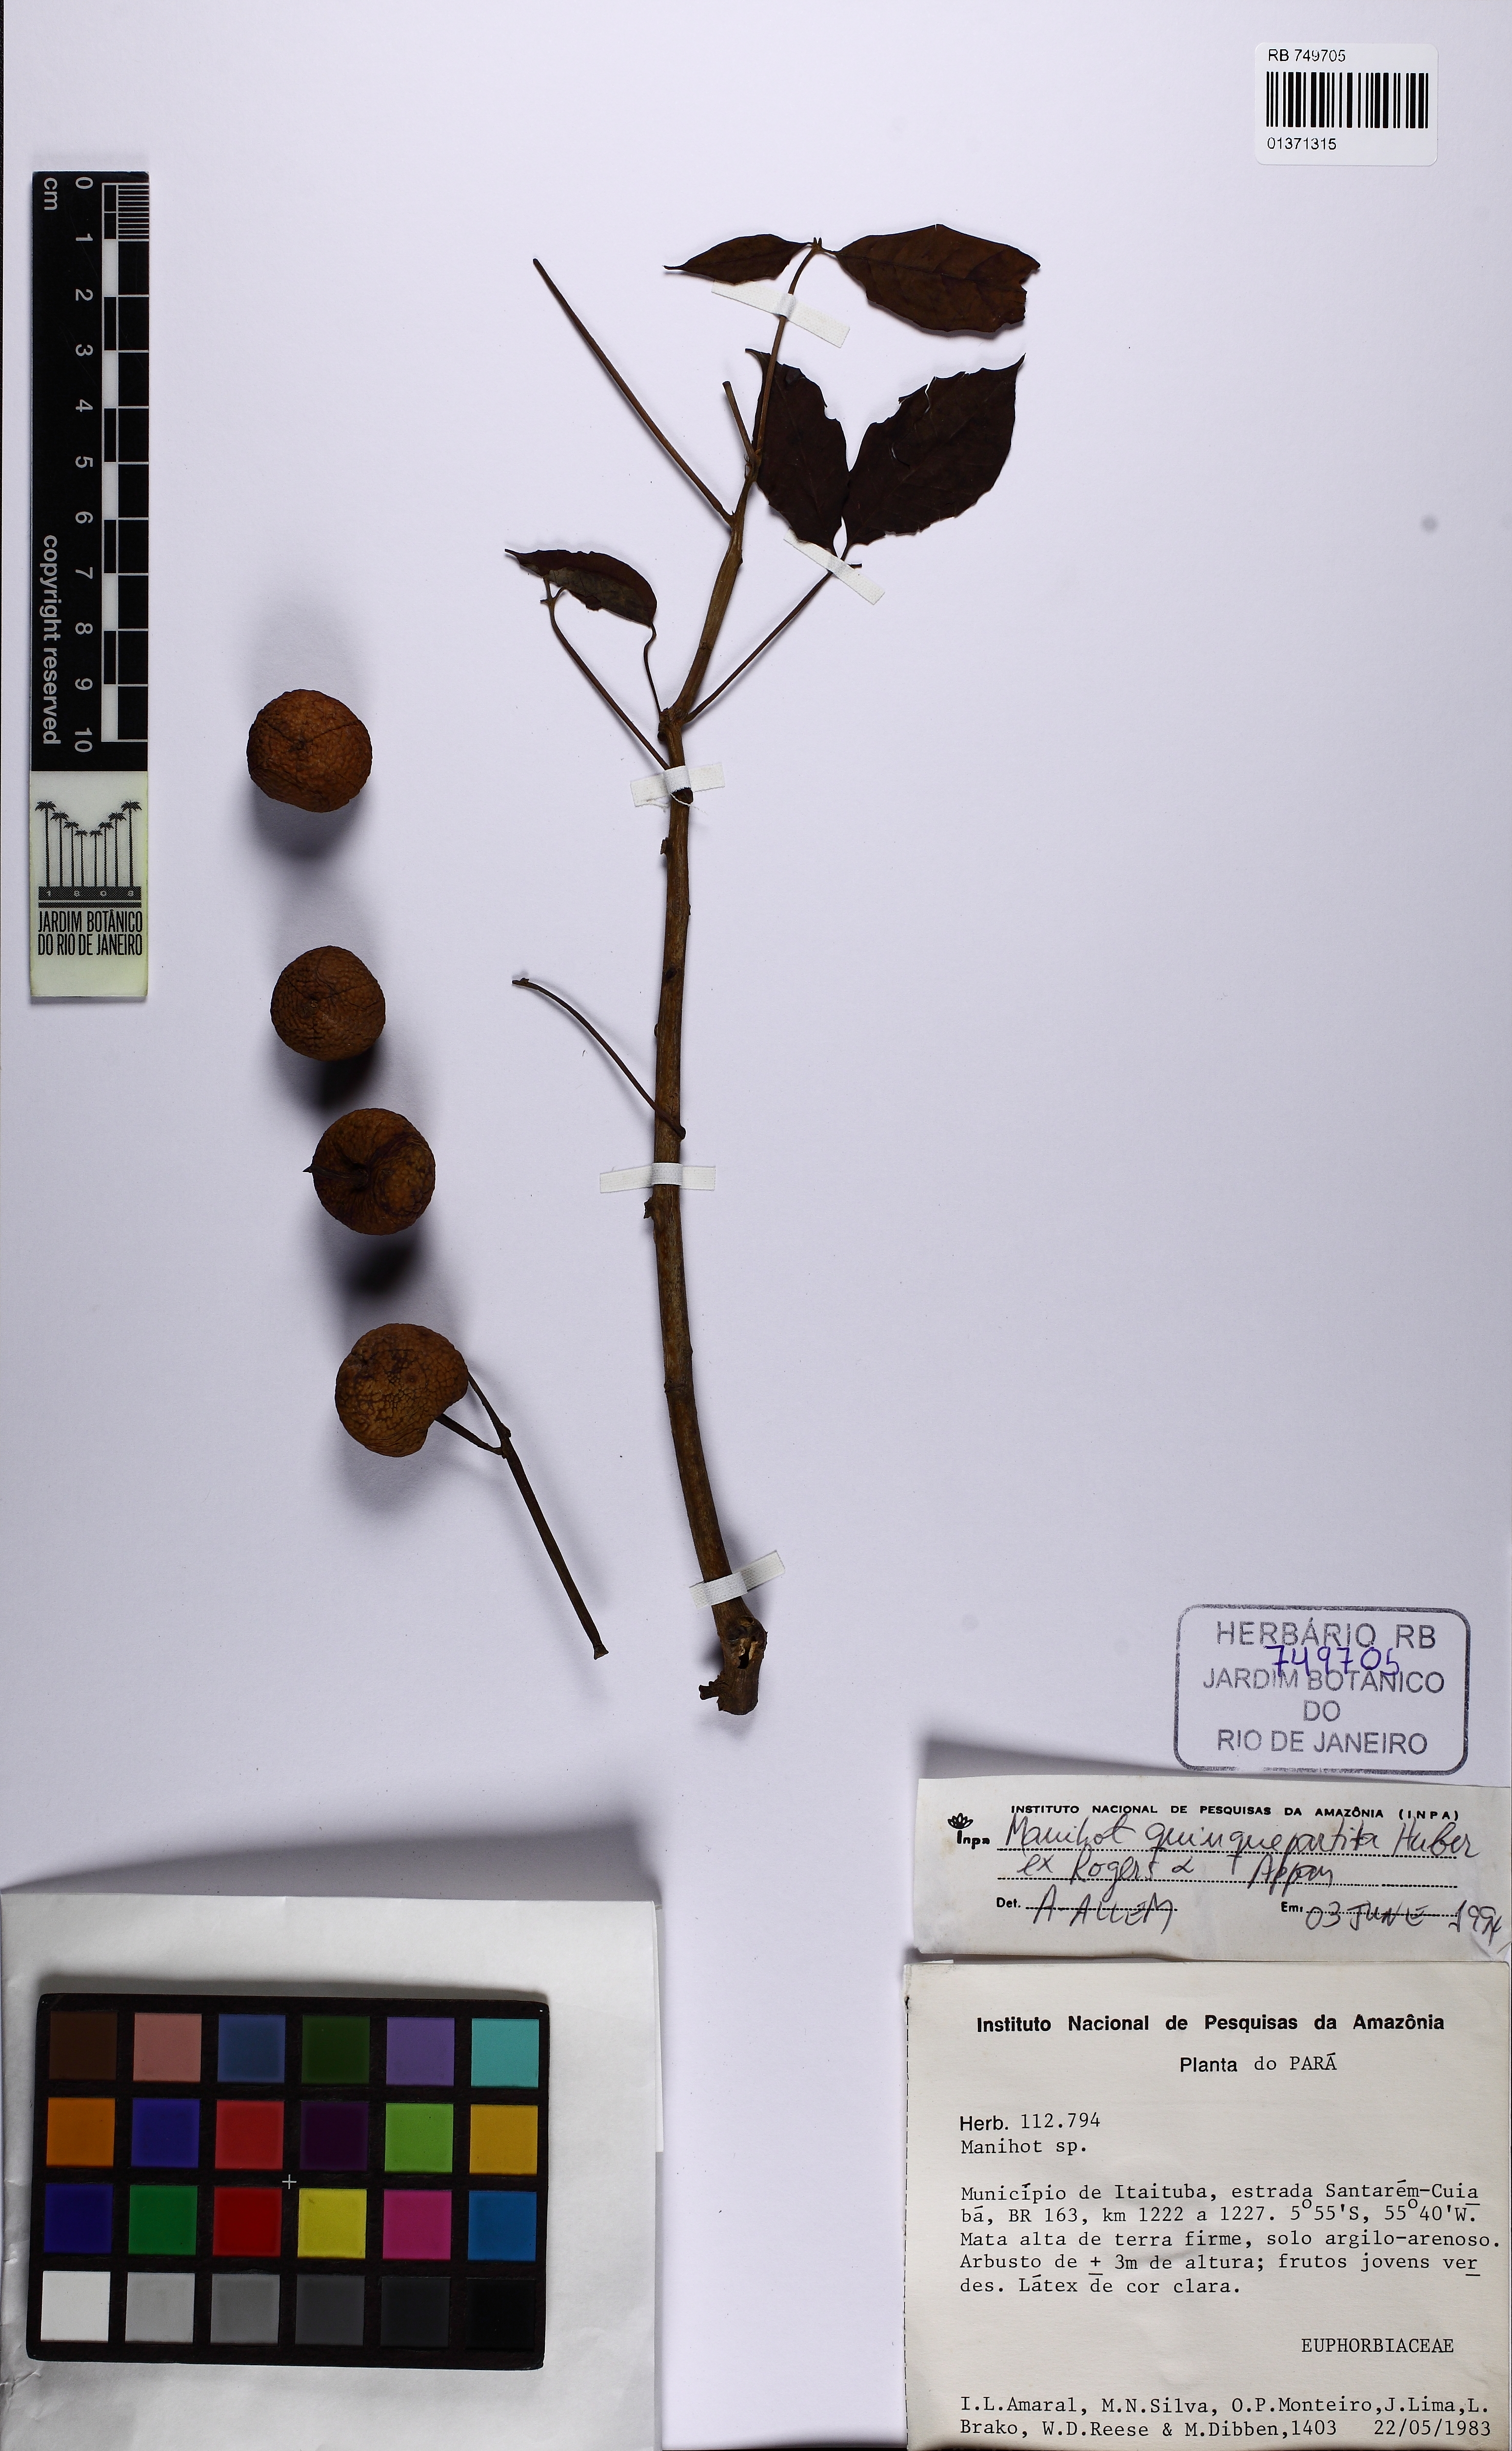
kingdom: Plantae
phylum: Tracheophyta
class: Magnoliopsida
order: Malpighiales
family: Euphorbiaceae
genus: Manihot
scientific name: Manihot quinquepartita
